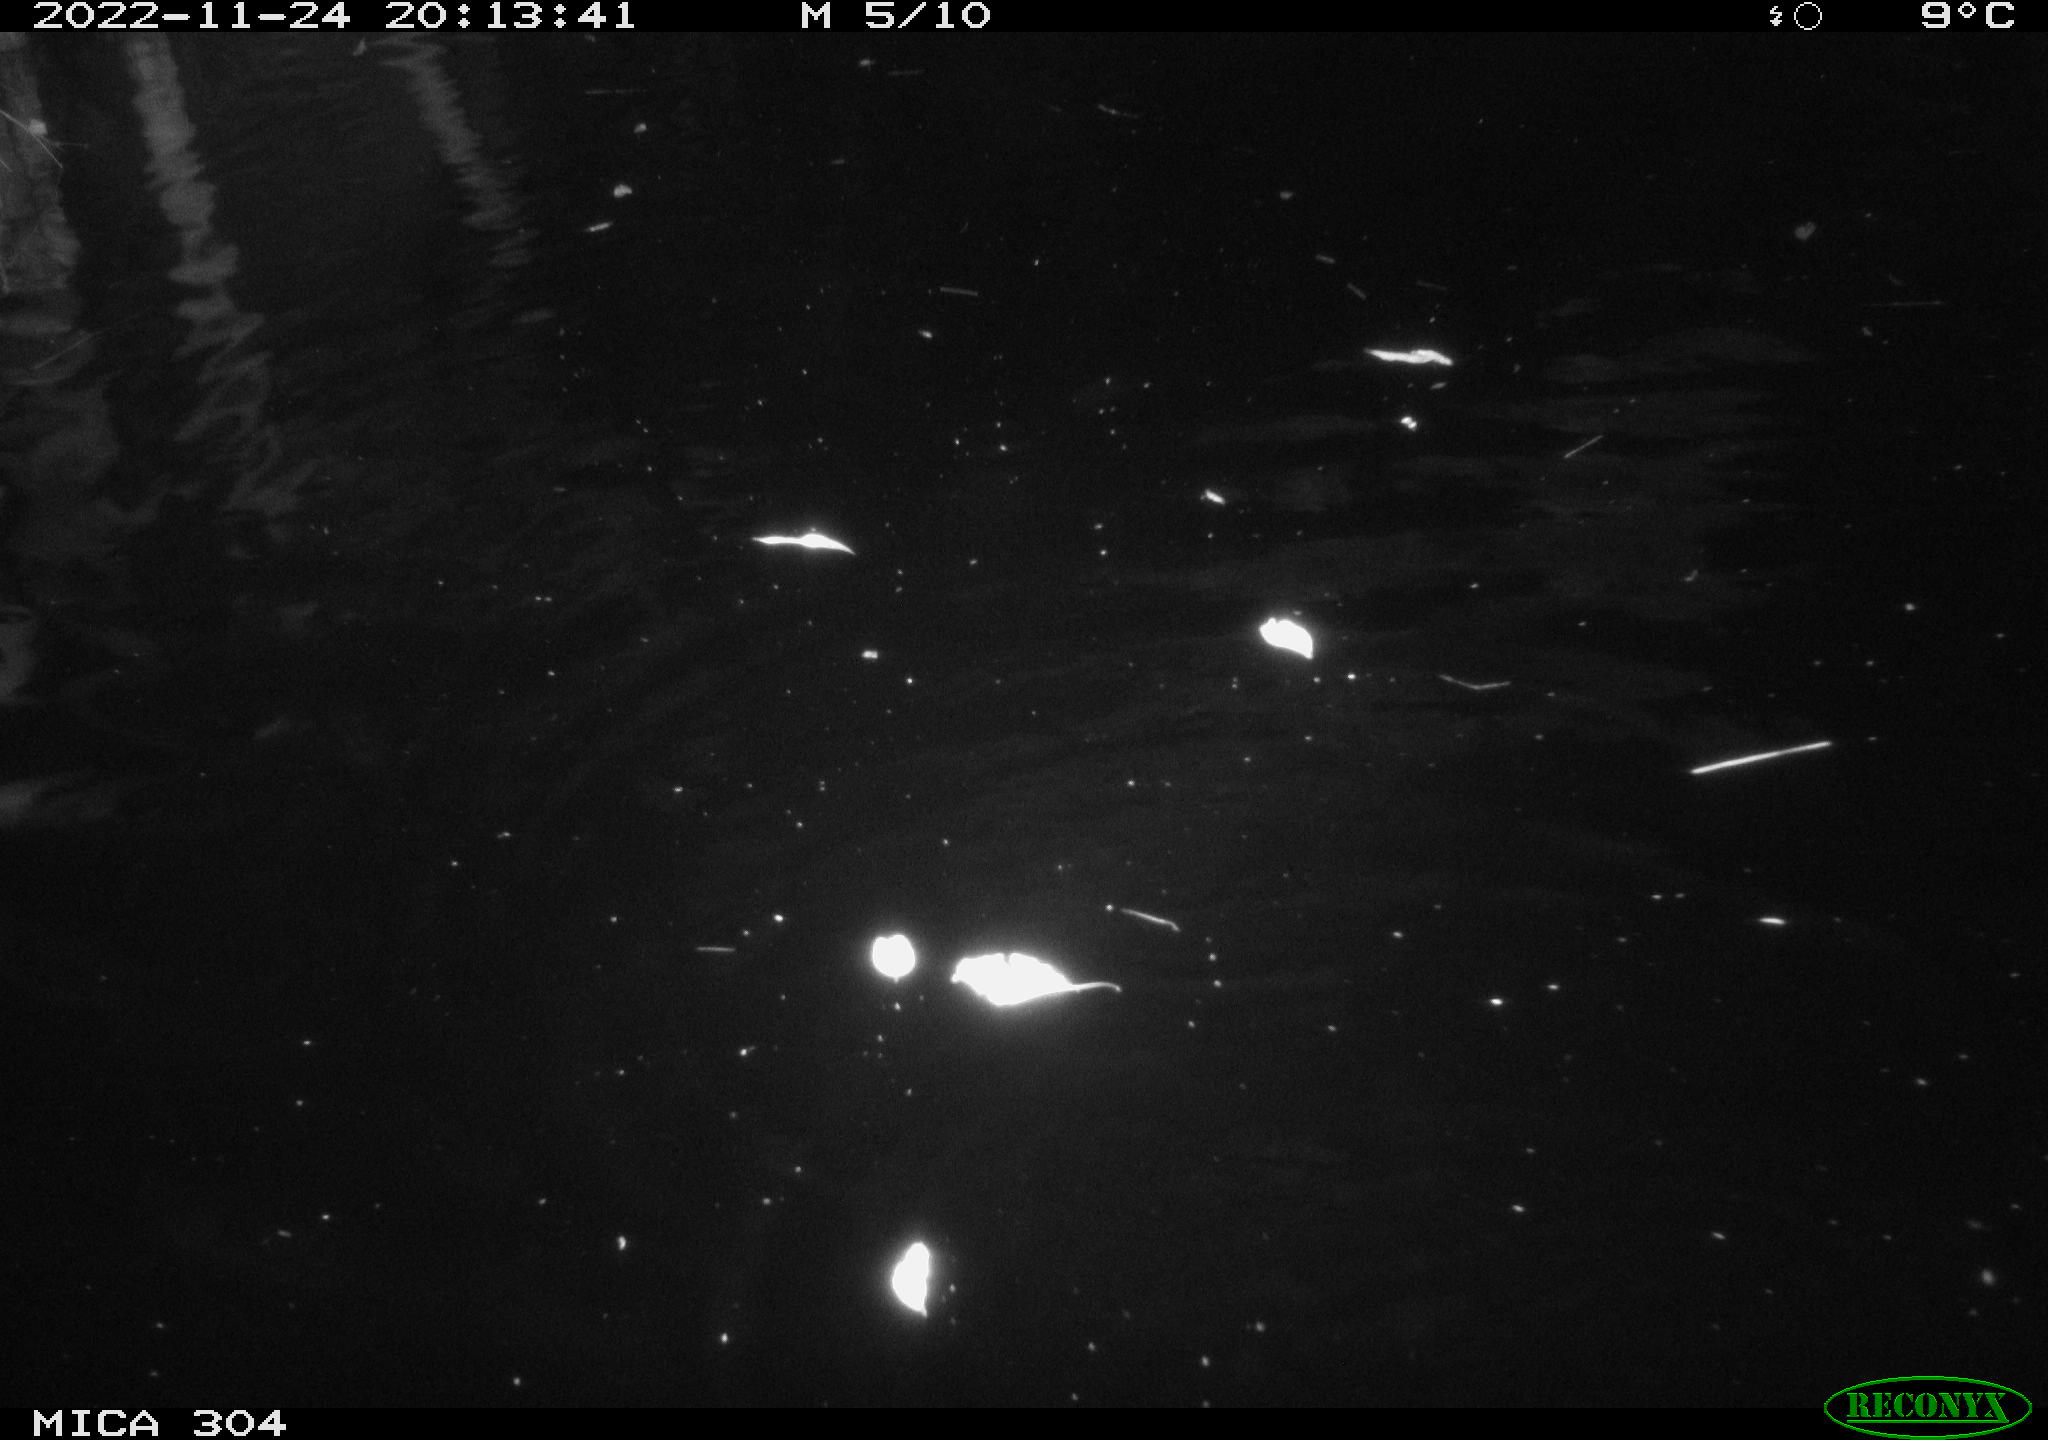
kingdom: Animalia
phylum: Chordata
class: Mammalia
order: Rodentia
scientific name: Rodentia
